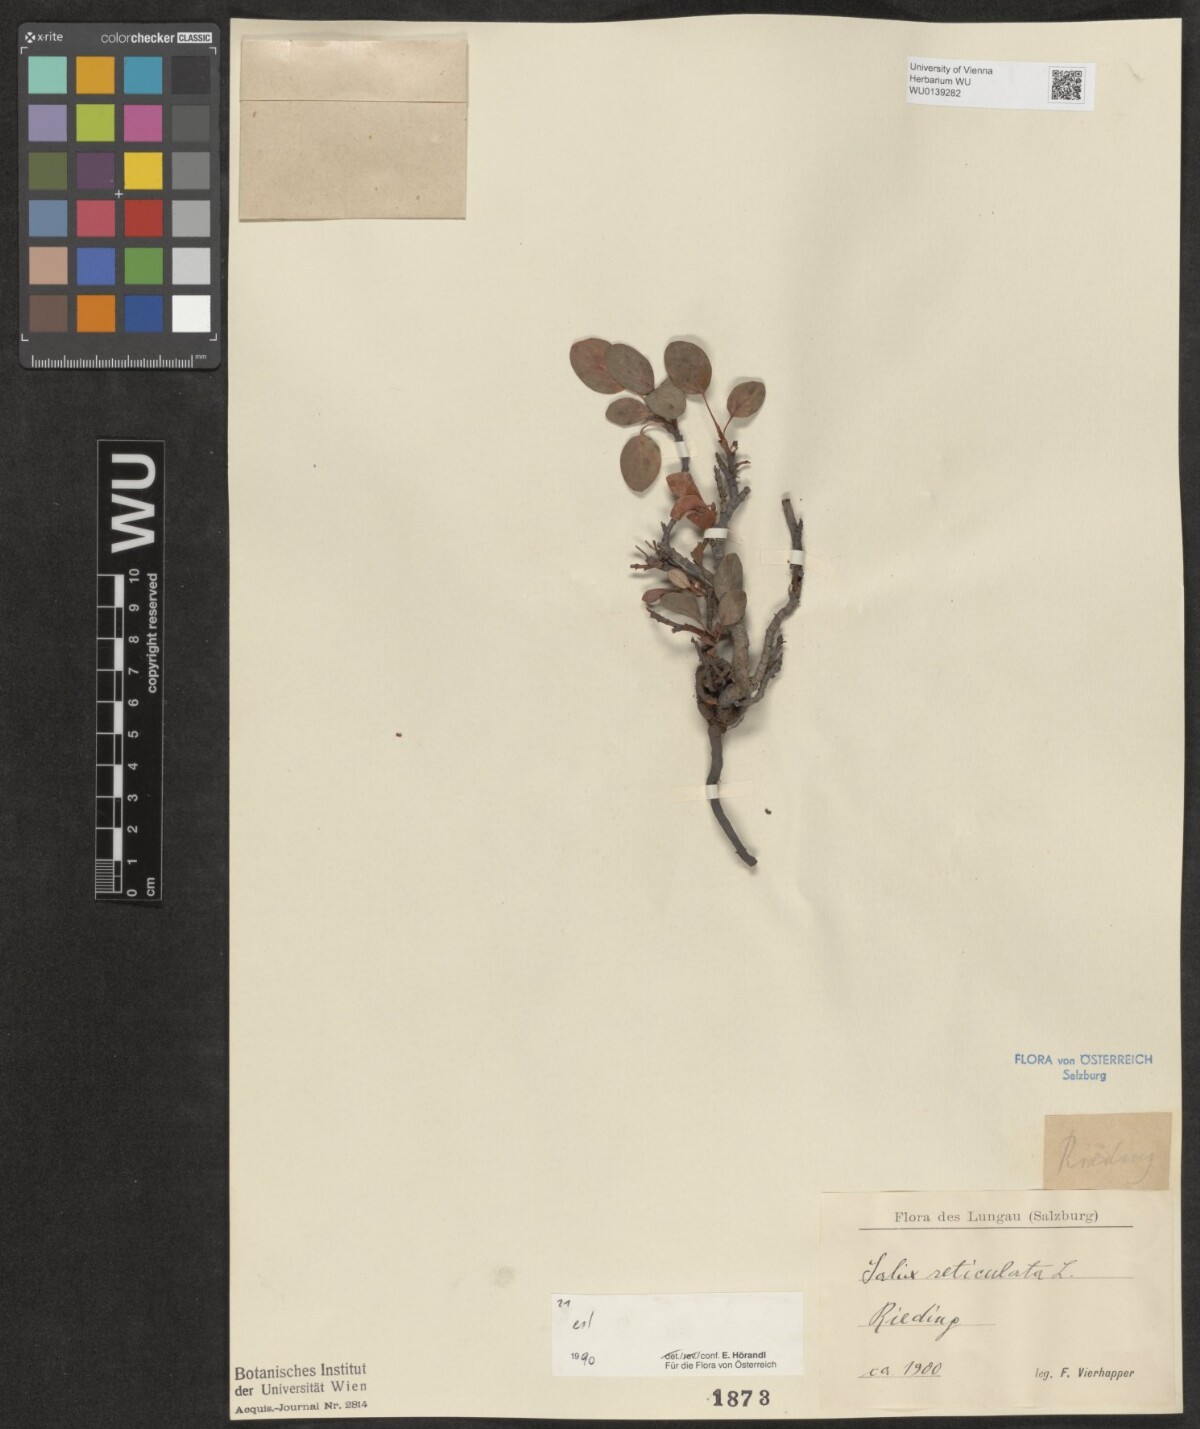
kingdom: Plantae
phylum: Tracheophyta
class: Magnoliopsida
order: Malpighiales
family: Salicaceae
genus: Salix
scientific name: Salix reticulata
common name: Net-leaved willow
